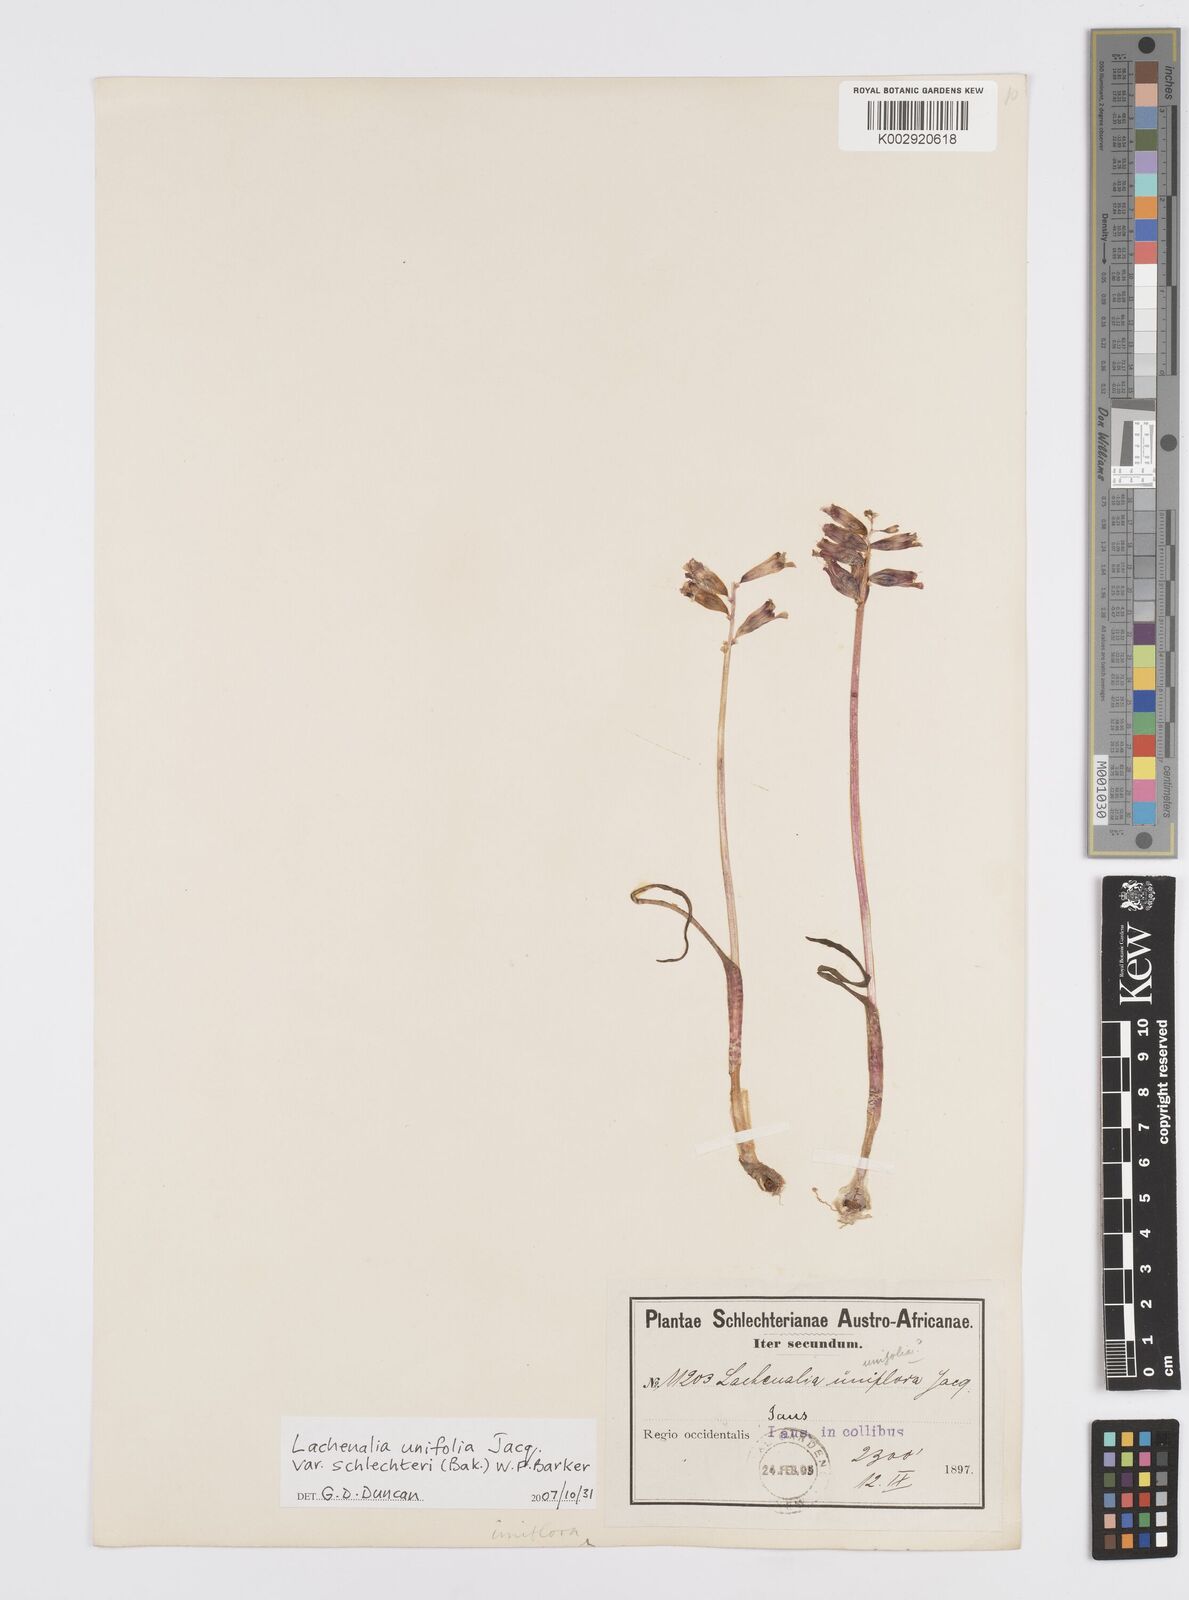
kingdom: Plantae
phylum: Tracheophyta
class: Liliopsida
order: Asparagales
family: Asparagaceae
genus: Lachenalia
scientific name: Lachenalia schlechteri
